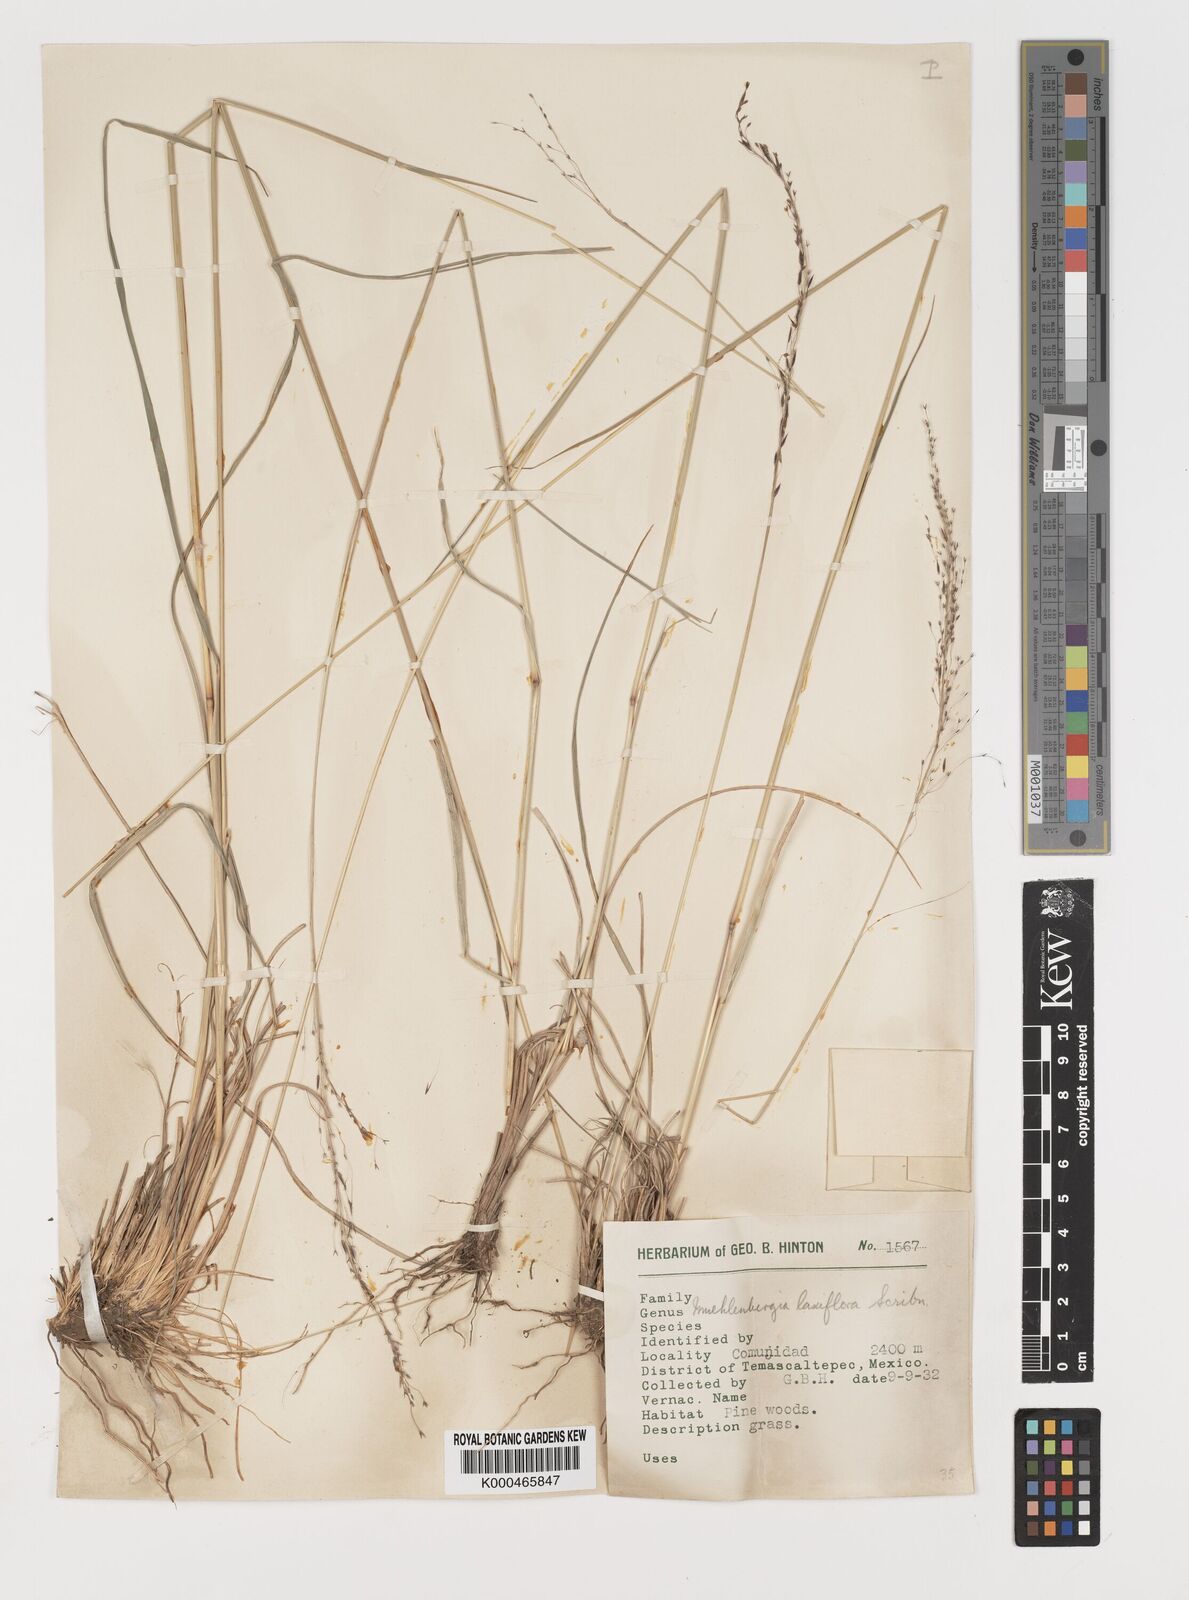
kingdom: Plantae
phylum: Tracheophyta
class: Liliopsida
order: Poales
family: Poaceae
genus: Muhlenbergia
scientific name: Muhlenbergia rigida
